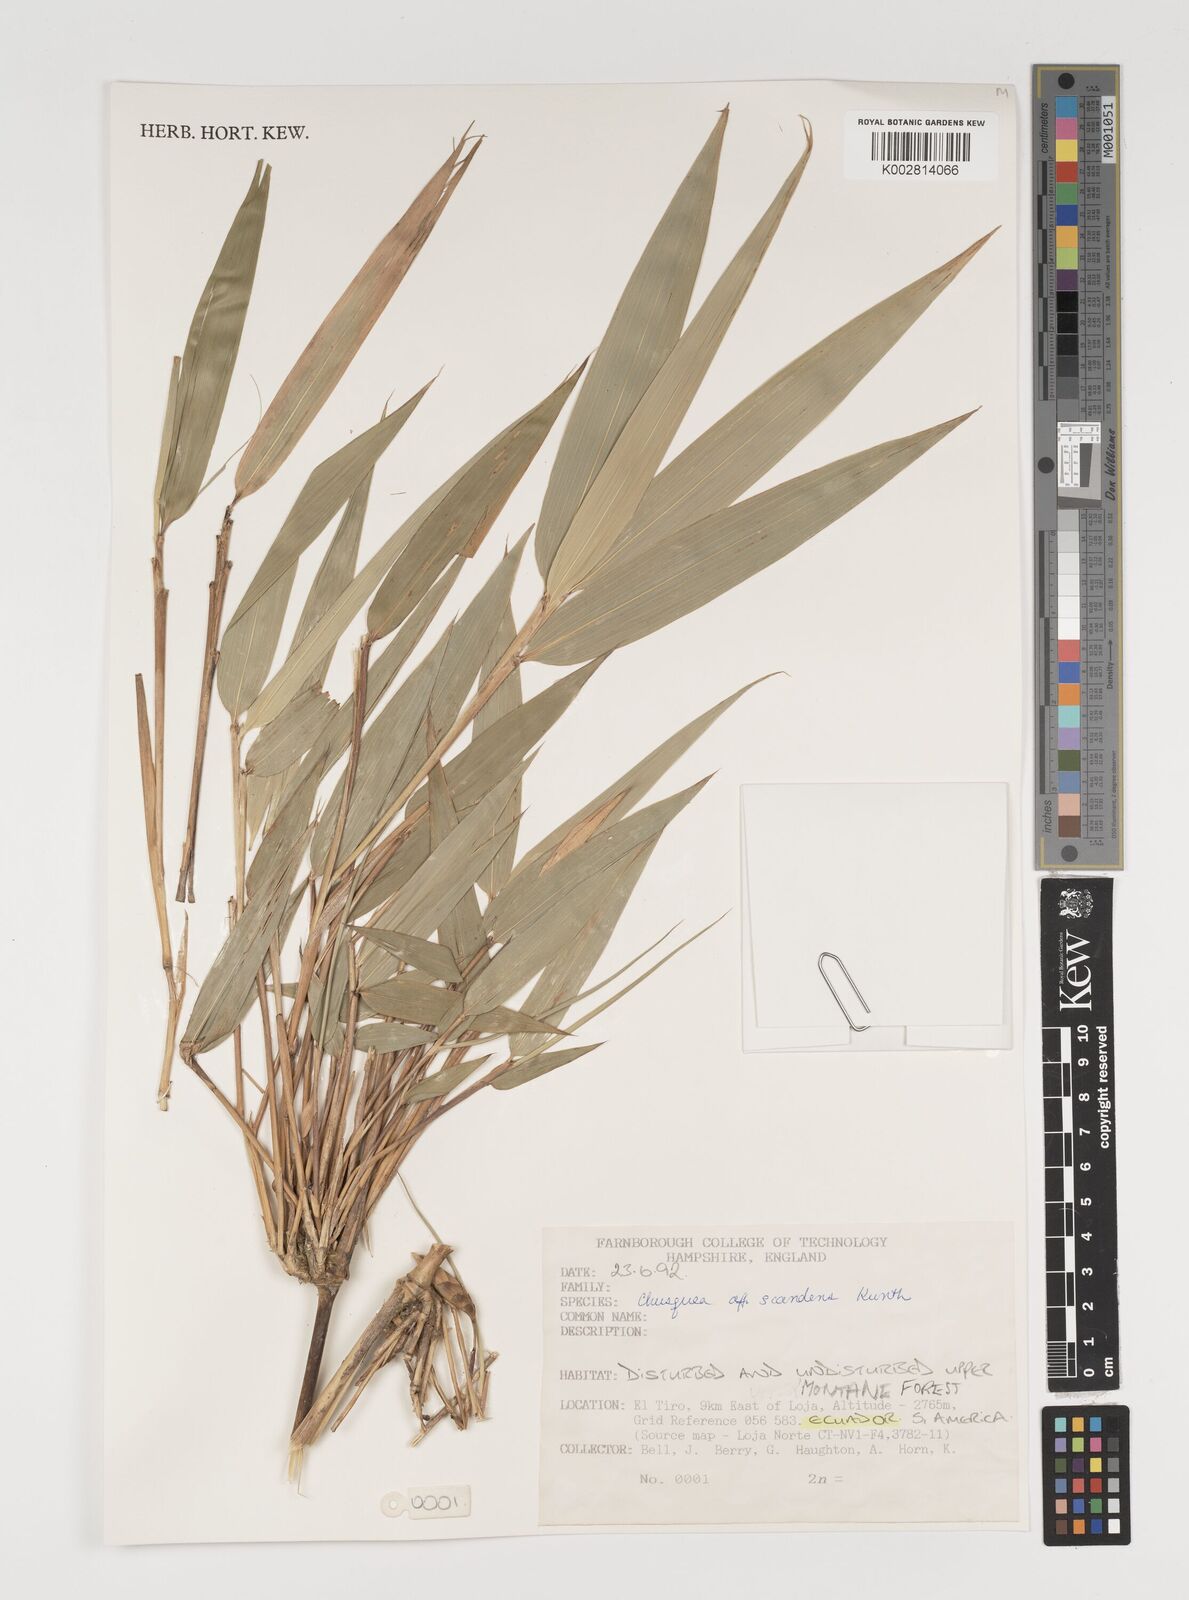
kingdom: Plantae
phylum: Tracheophyta
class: Liliopsida
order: Poales
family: Poaceae
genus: Chusquea
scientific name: Chusquea
